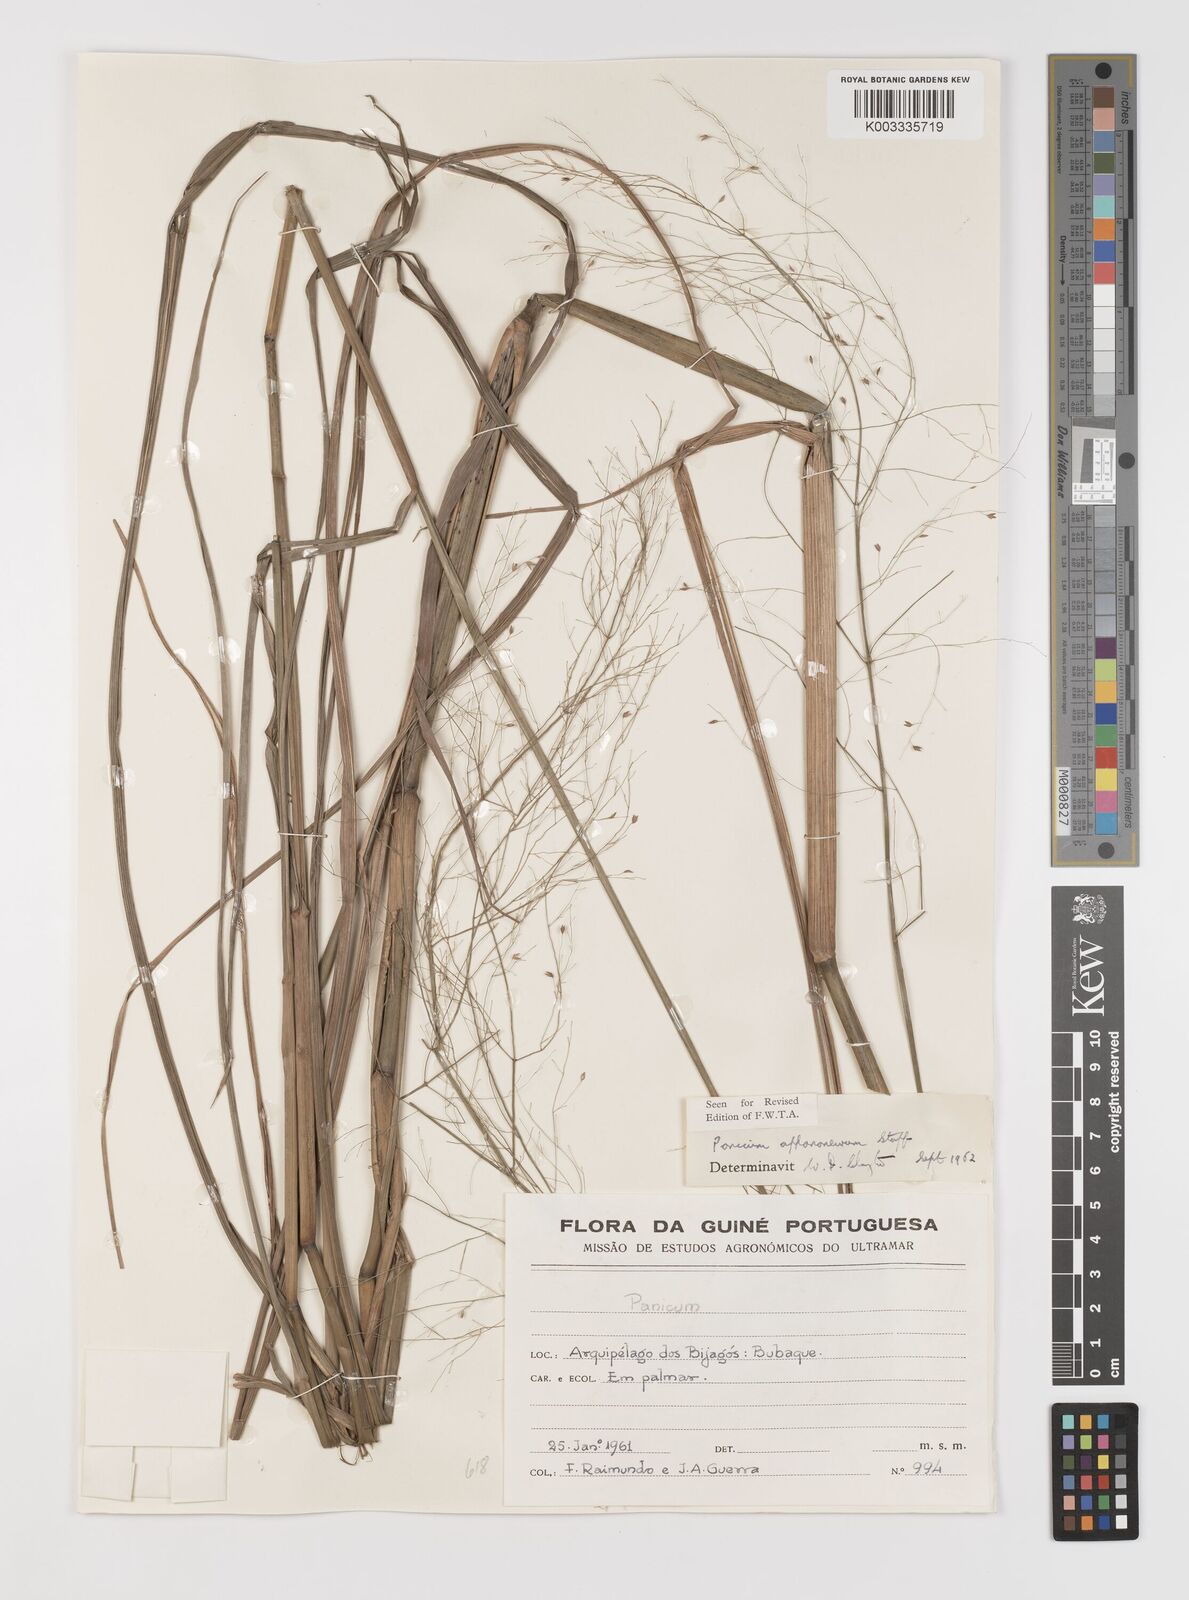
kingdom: Plantae
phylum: Tracheophyta
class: Liliopsida
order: Poales
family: Poaceae
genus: Panicum
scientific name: Panicum fluviicola
